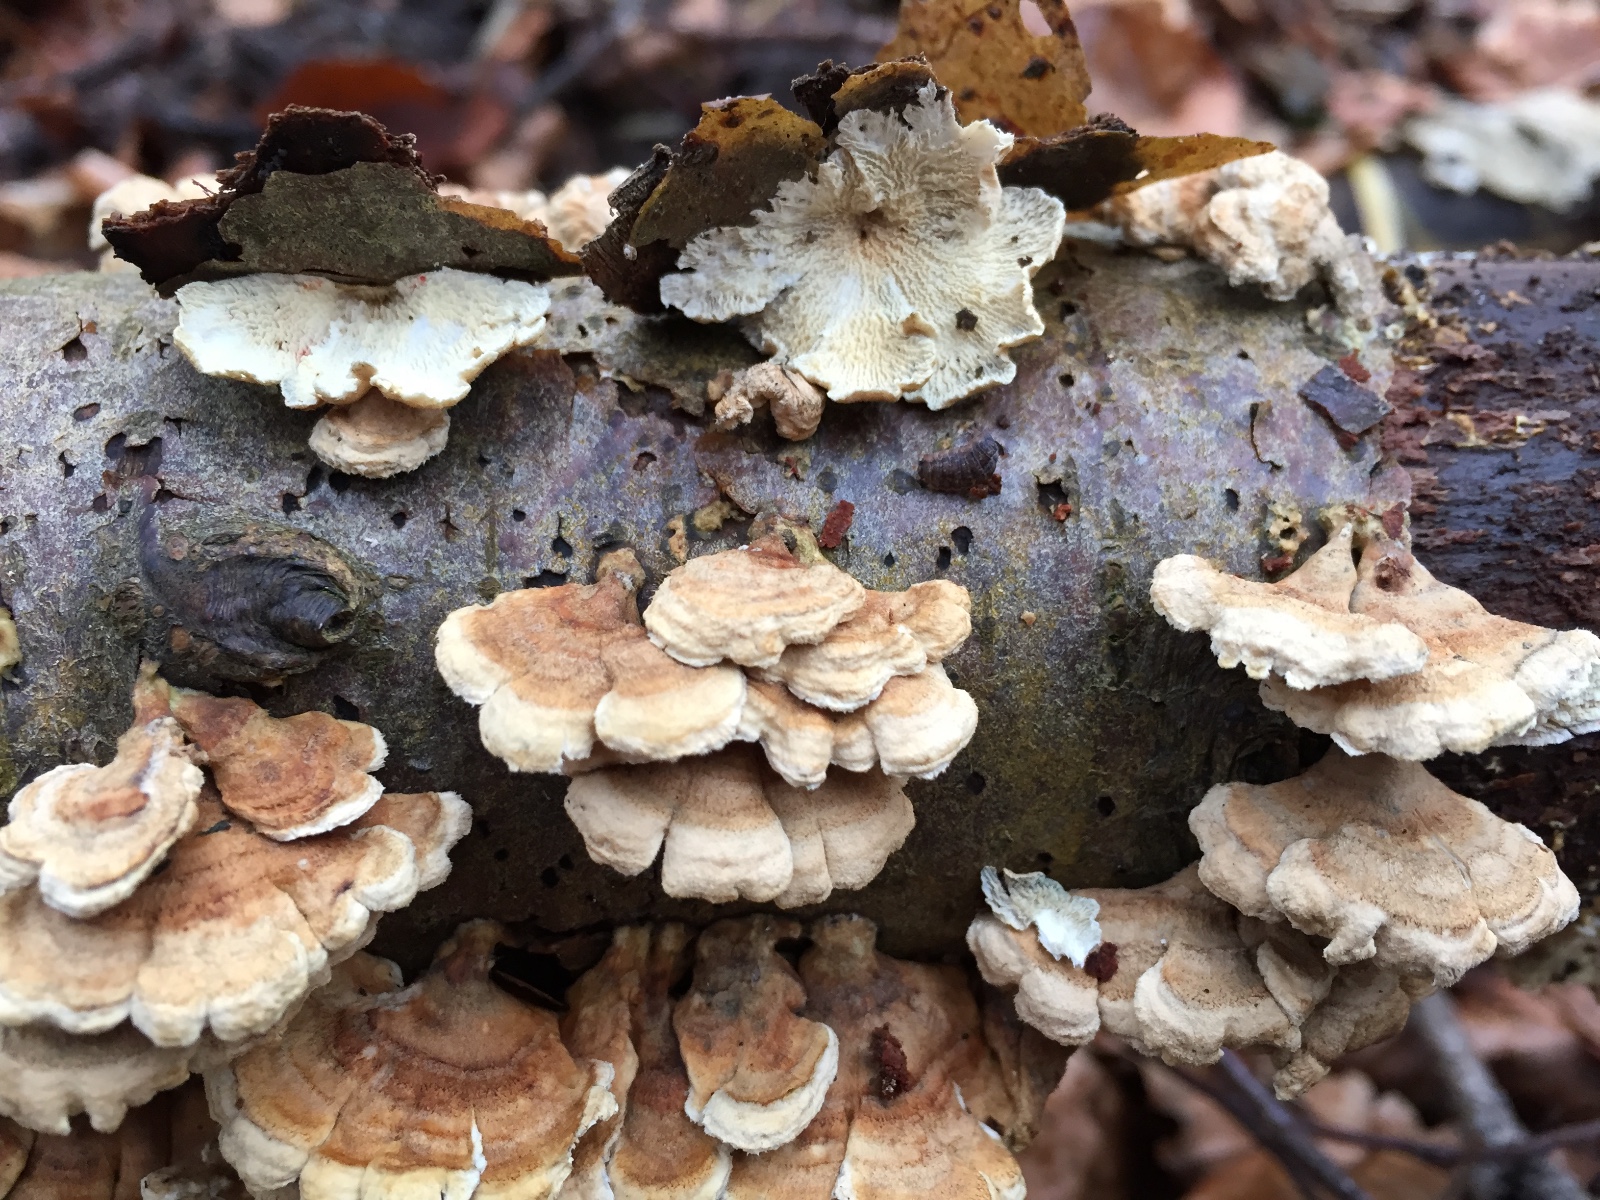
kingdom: Fungi
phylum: Basidiomycota
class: Agaricomycetes
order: Amylocorticiales
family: Amylocorticiaceae
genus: Plicaturopsis
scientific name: Plicaturopsis crispa
